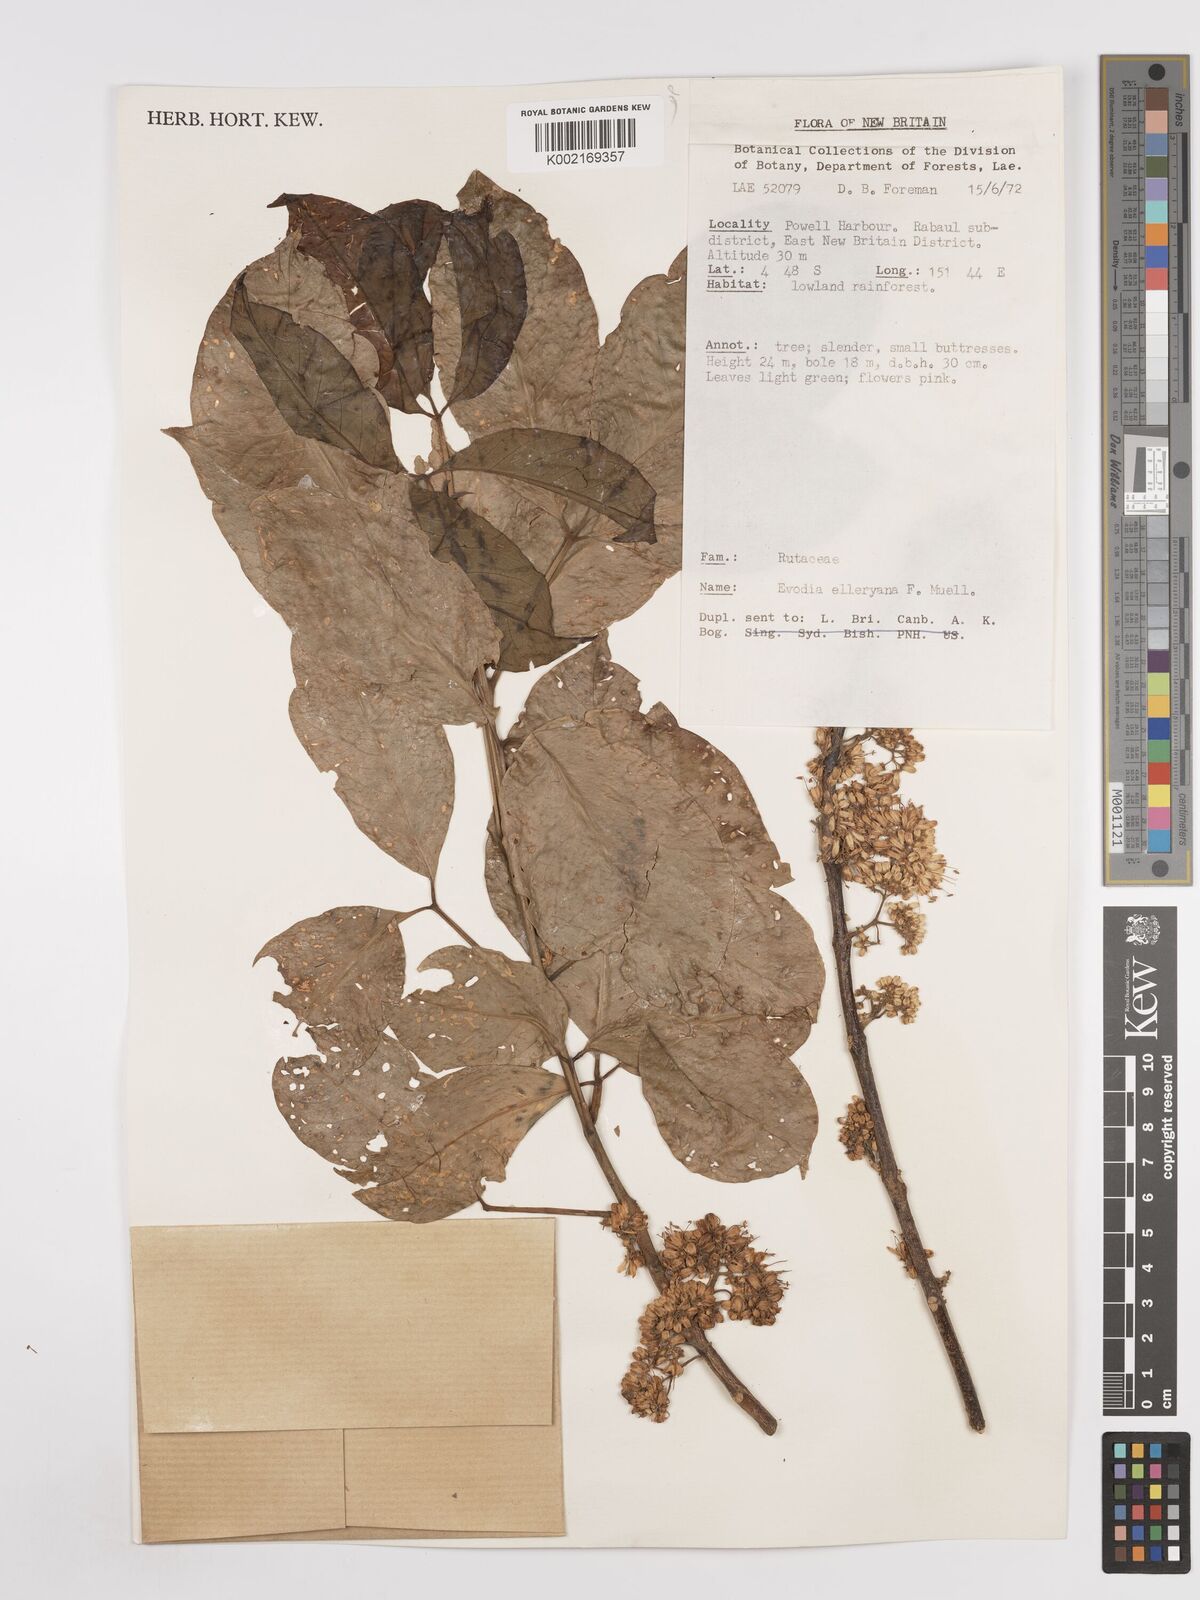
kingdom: Plantae
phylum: Tracheophyta
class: Magnoliopsida
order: Sapindales
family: Rutaceae
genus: Melicope
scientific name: Melicope elleryana
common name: Pink euodia
